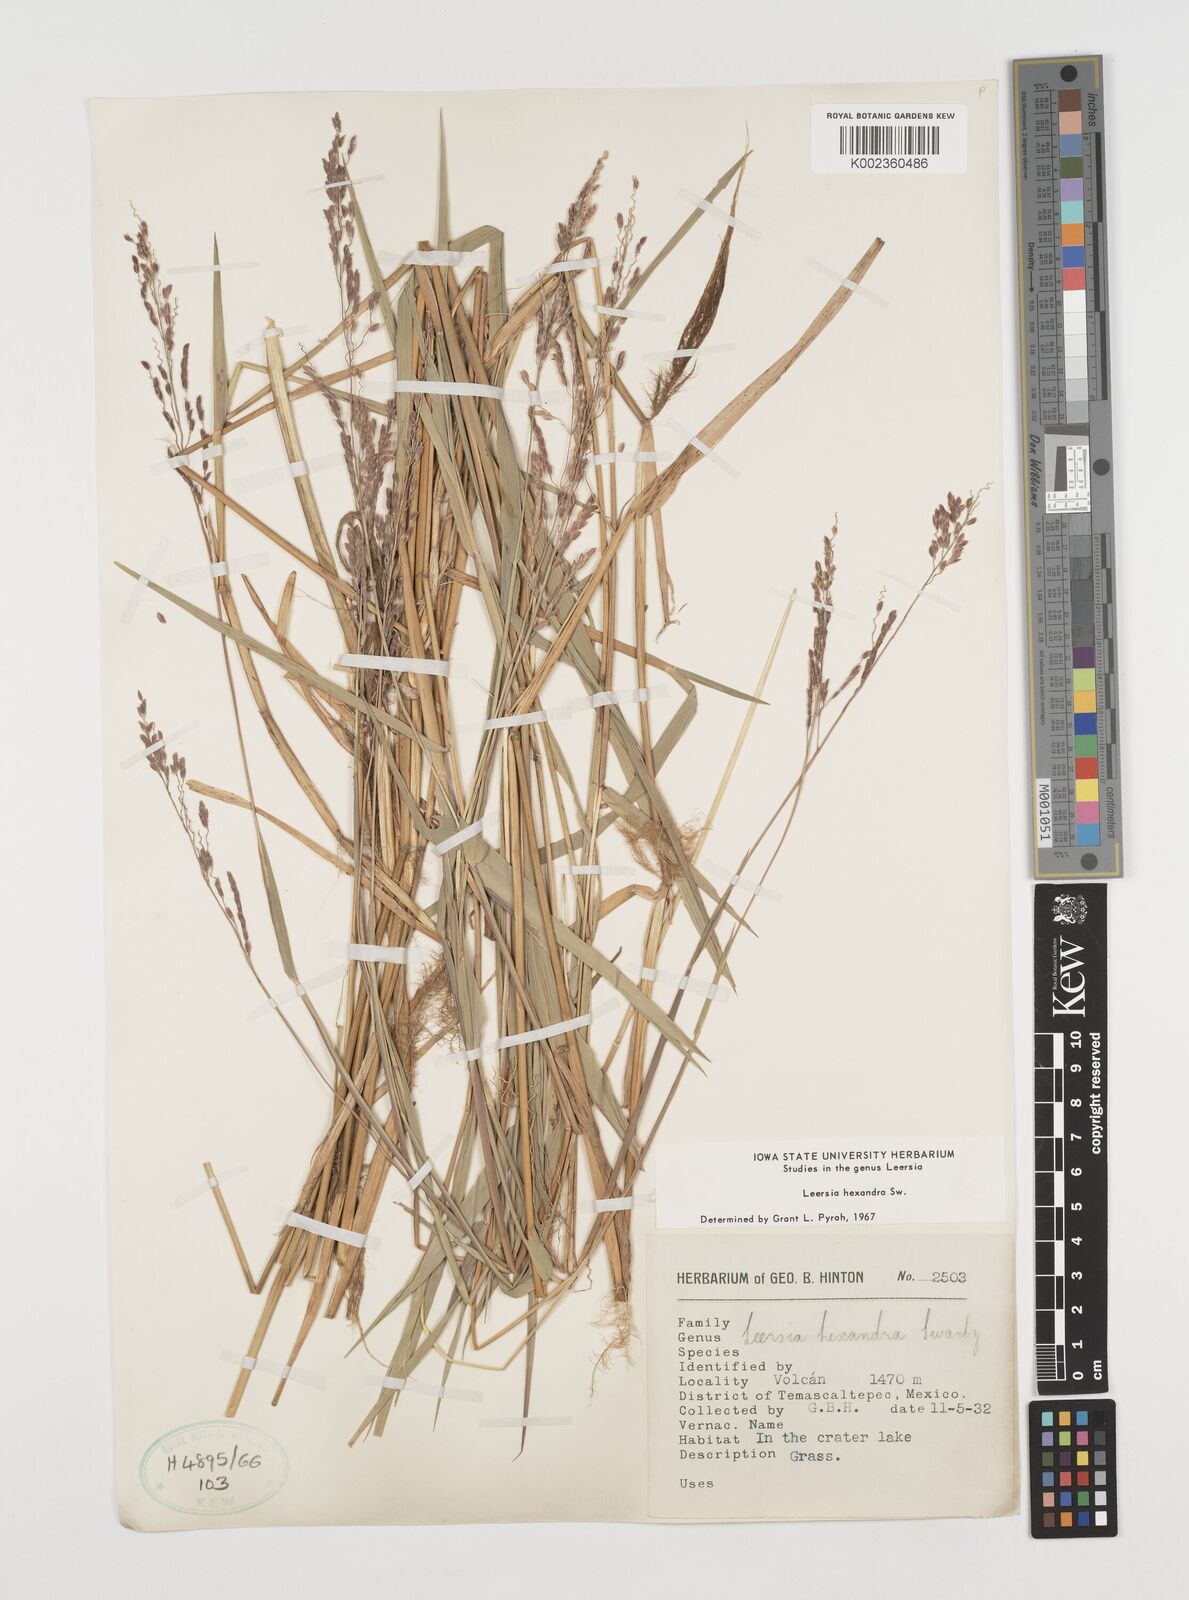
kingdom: Plantae
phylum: Tracheophyta
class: Liliopsida
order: Poales
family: Poaceae
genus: Leersia
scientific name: Leersia hexandra
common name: Southern cut grass
